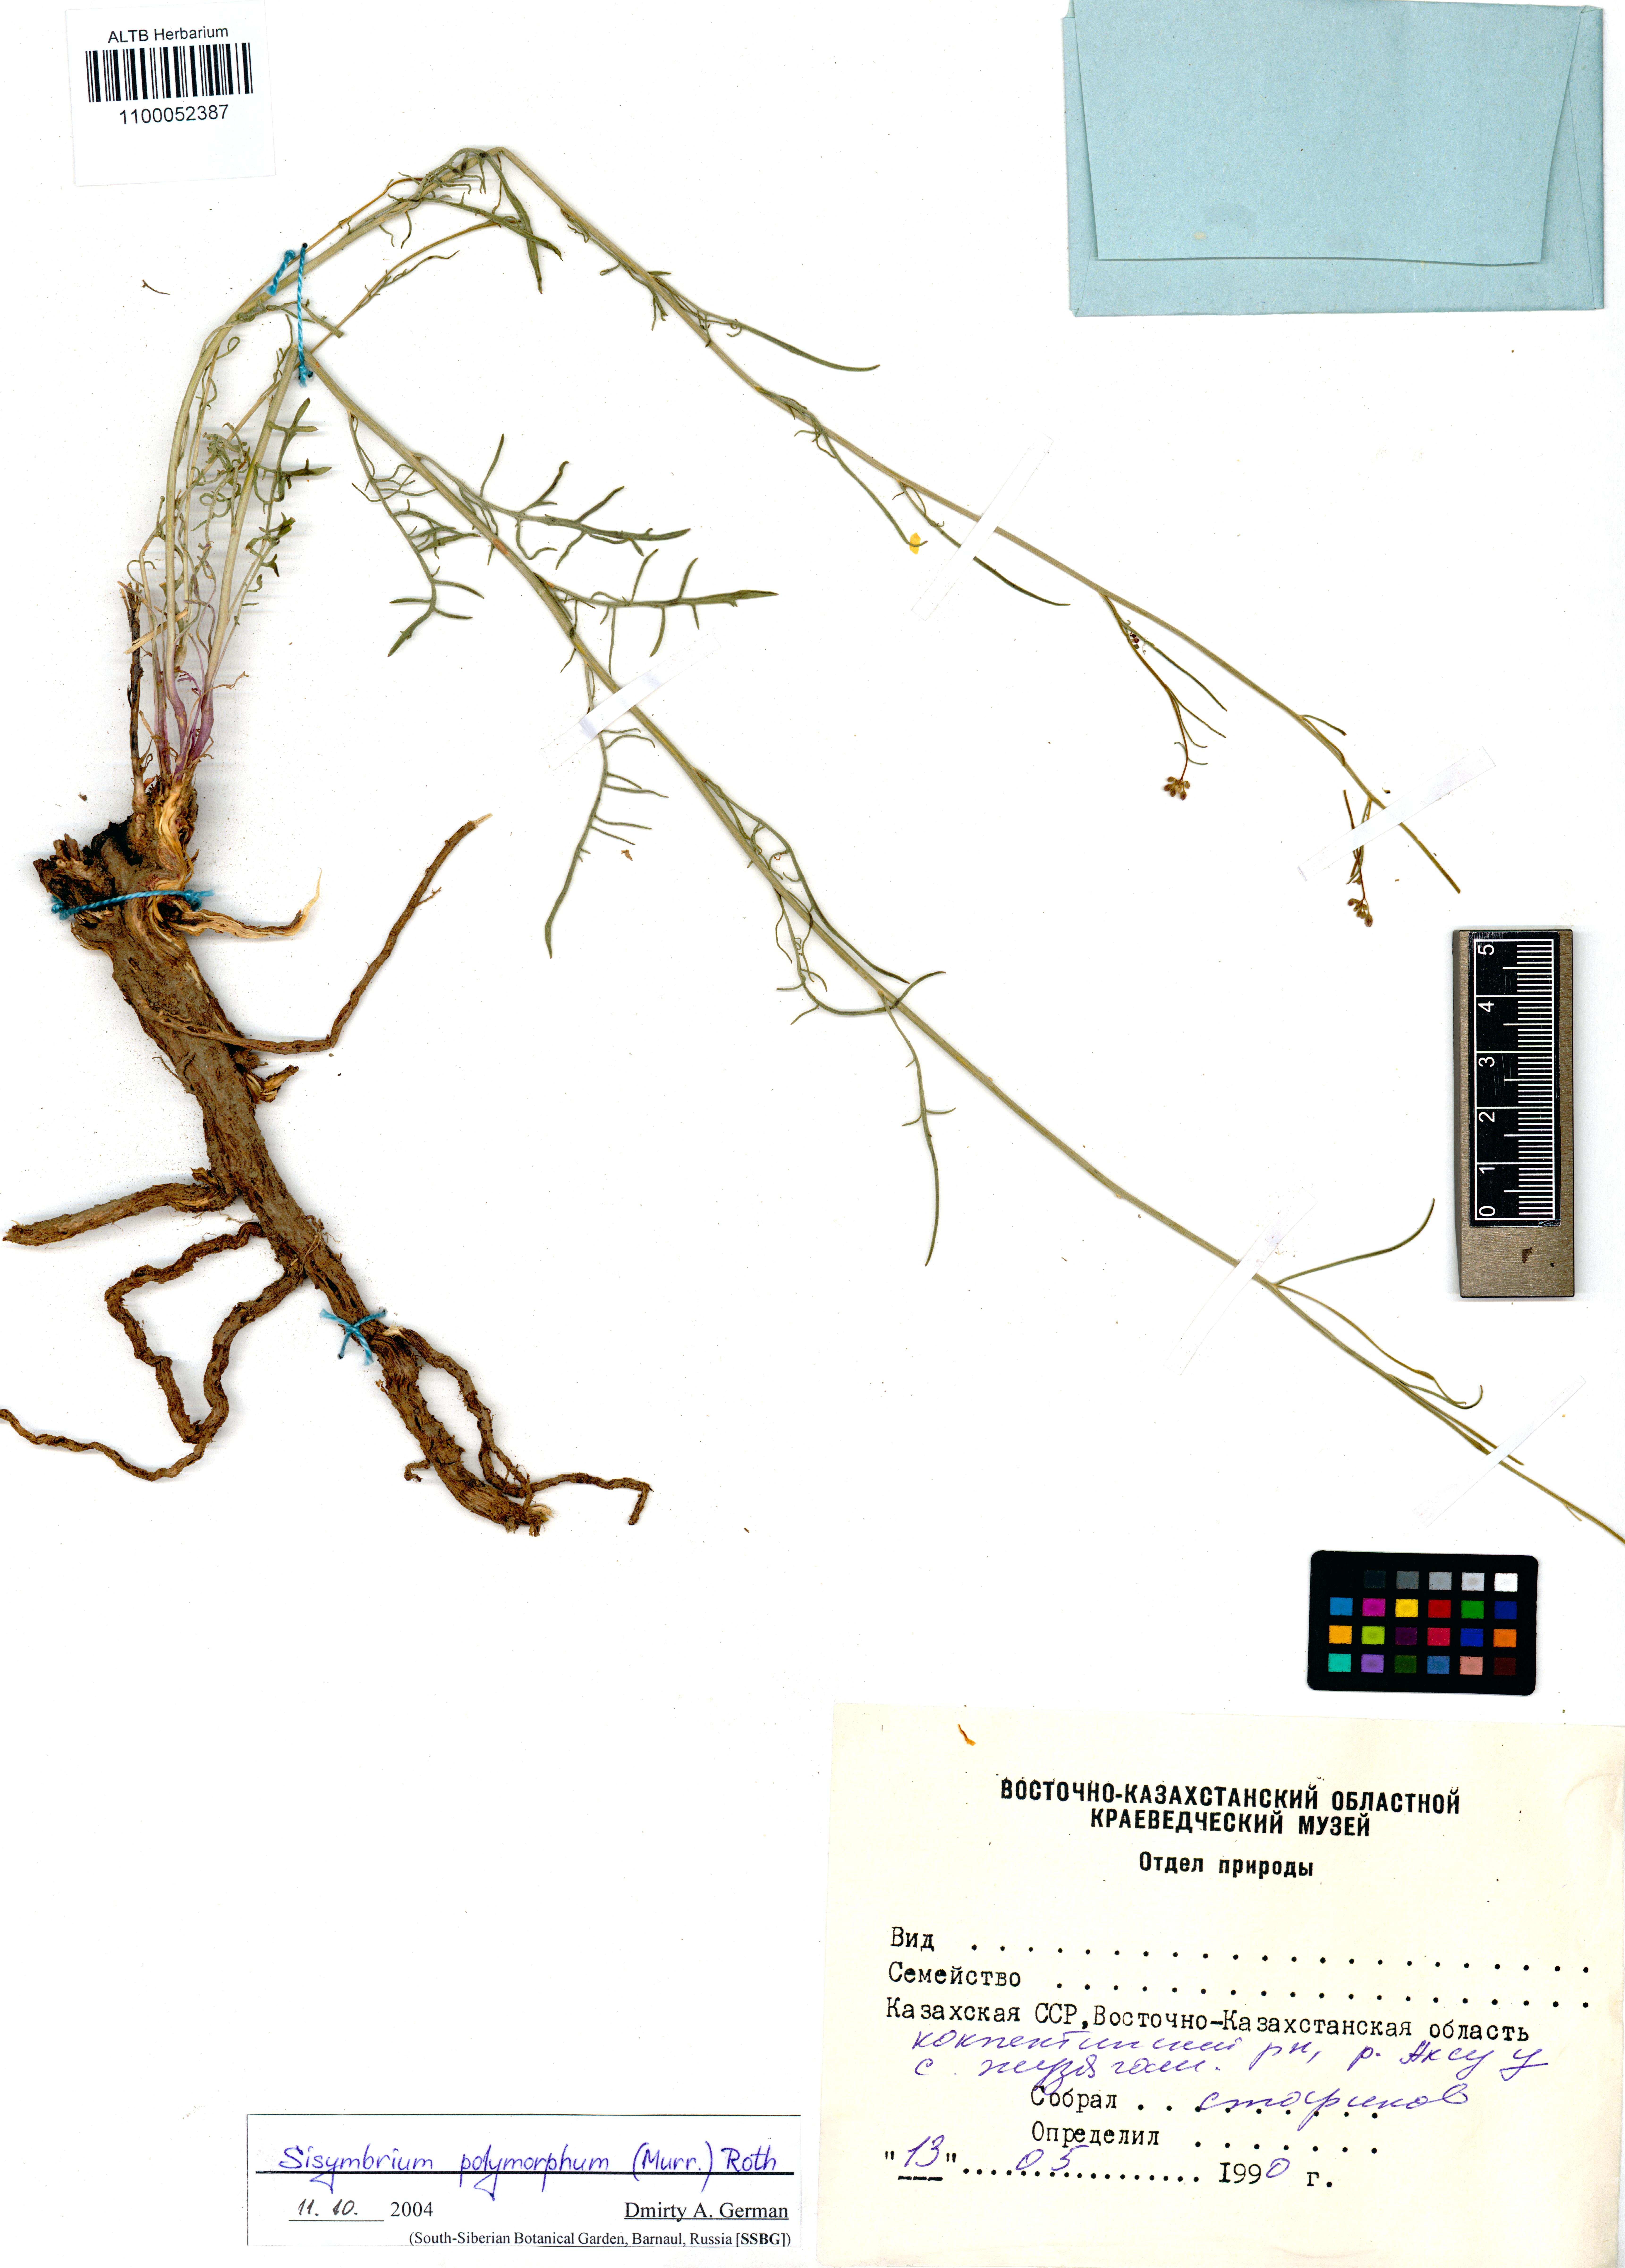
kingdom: Plantae
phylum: Tracheophyta
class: Magnoliopsida
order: Brassicales
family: Brassicaceae
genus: Sisymbrium
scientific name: Sisymbrium polymorphum
